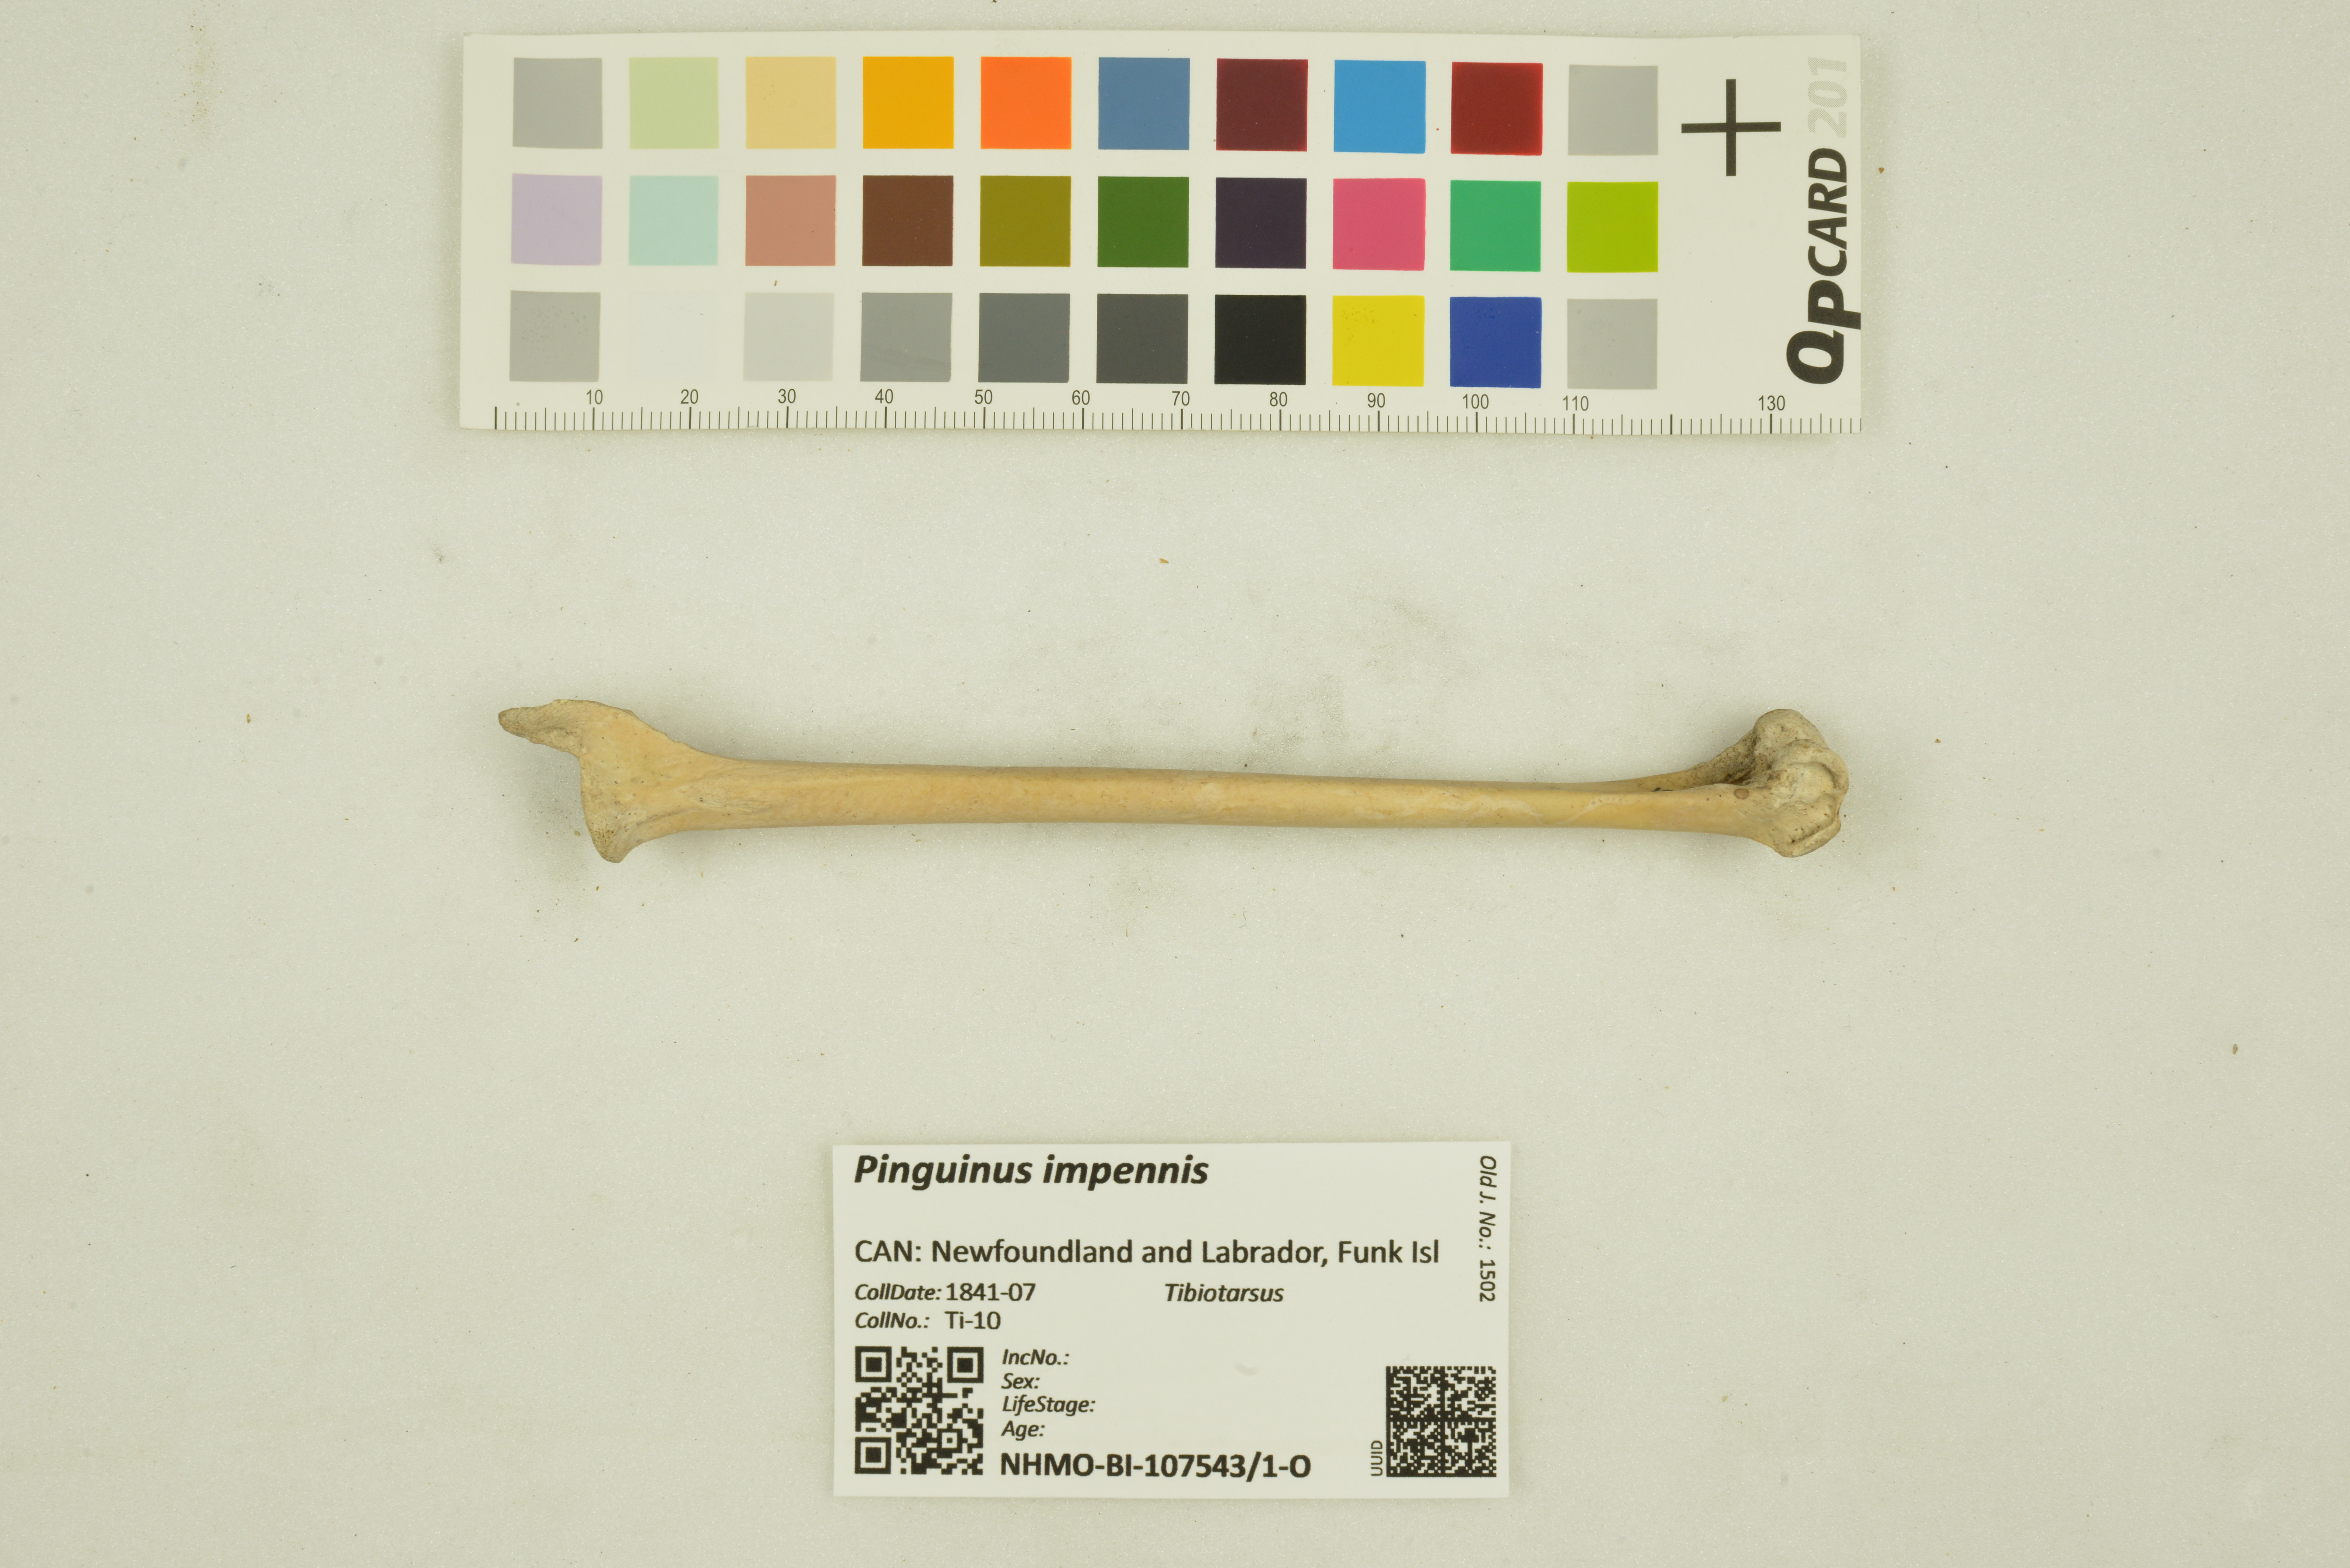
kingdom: Animalia
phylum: Chordata
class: Aves
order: Charadriiformes
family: Alcidae
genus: Pinguinus
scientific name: Pinguinus impennis
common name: Great auk
